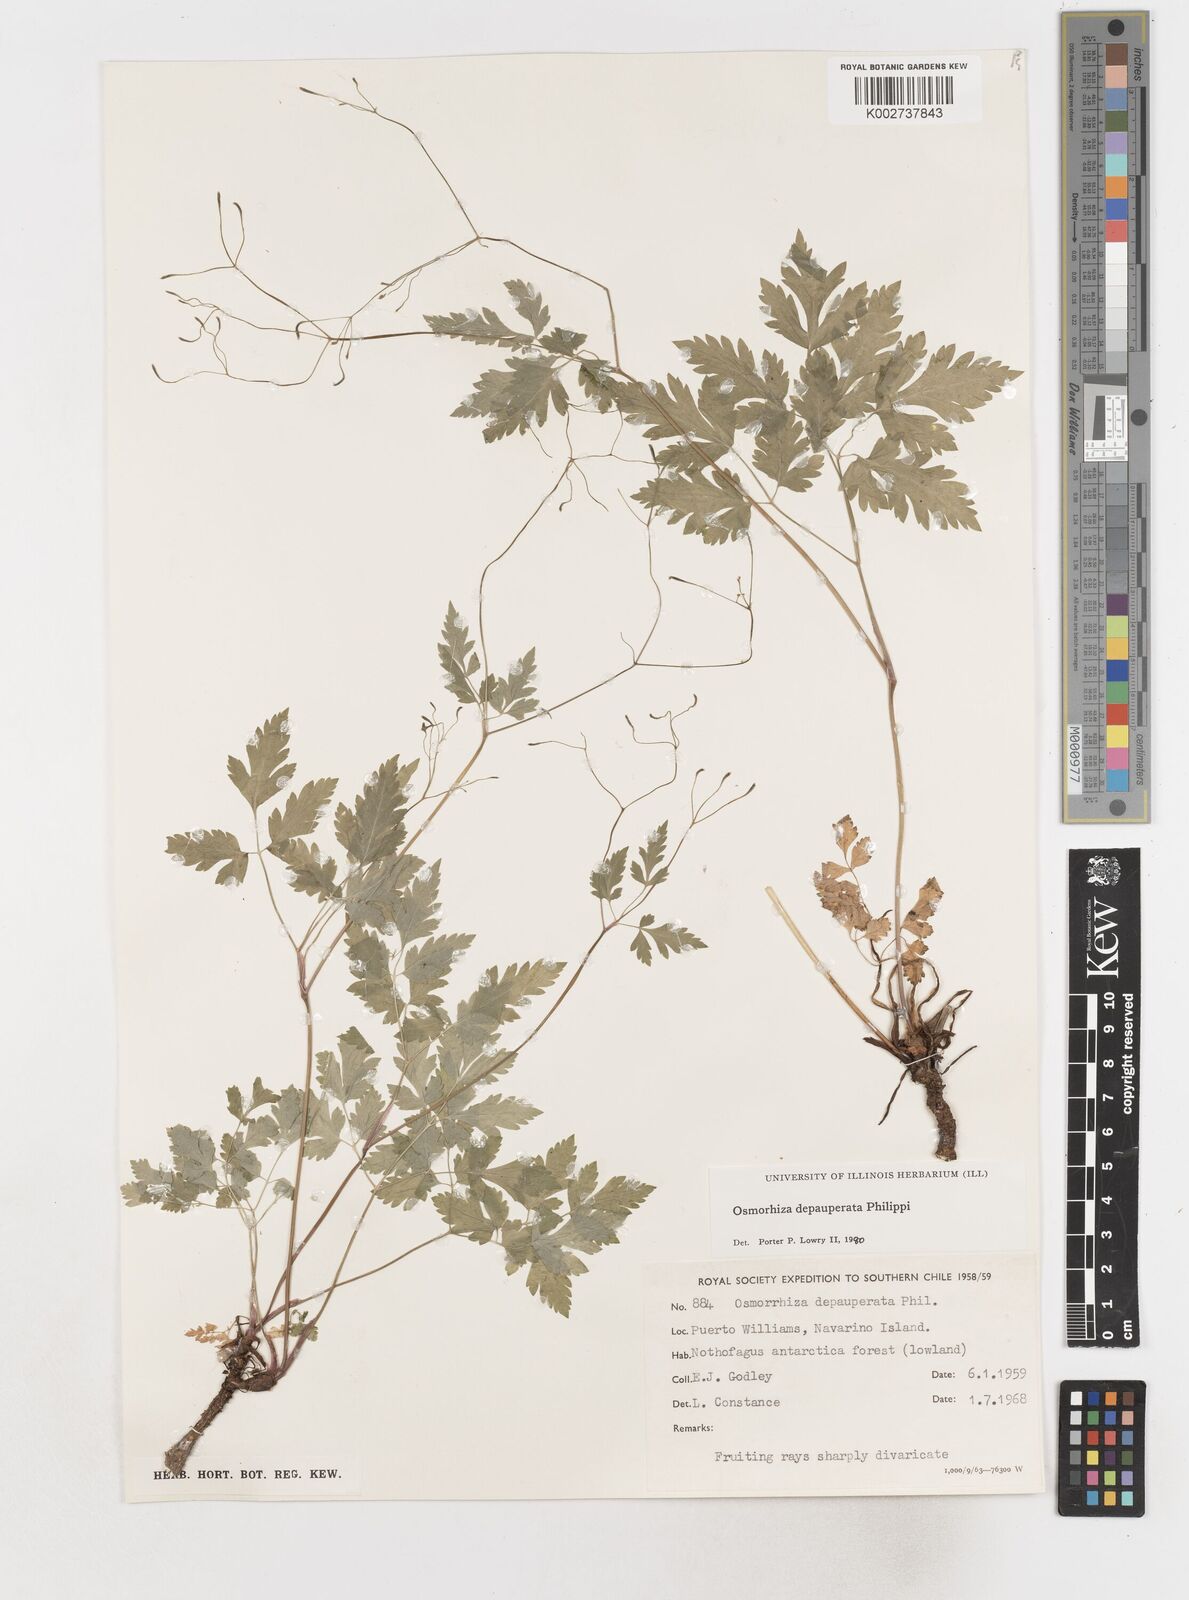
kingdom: Plantae
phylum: Tracheophyta
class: Magnoliopsida
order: Apiales
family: Apiaceae
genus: Osmorhiza
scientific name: Osmorhiza depauperata
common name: Blunt sweet cicely
